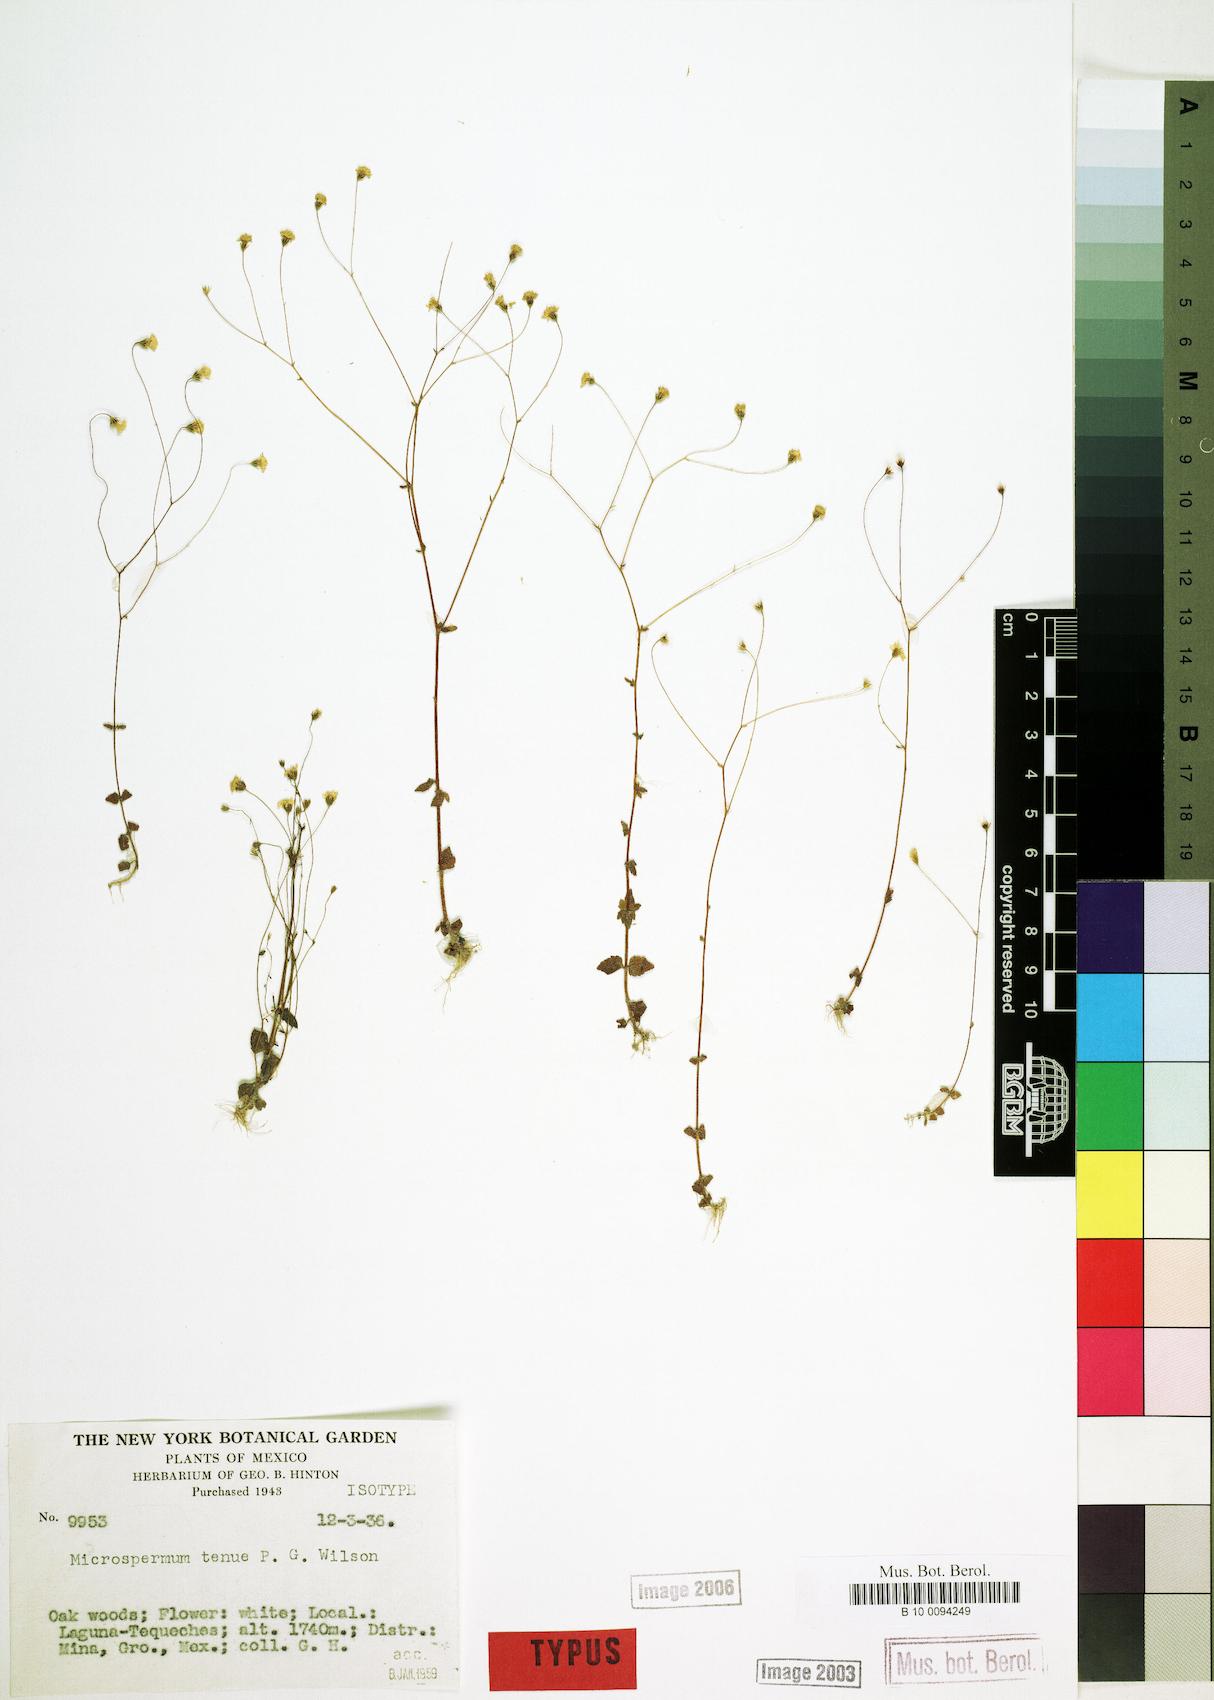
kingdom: Plantae
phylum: Tracheophyta
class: Magnoliopsida
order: Asterales
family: Asteraceae
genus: Microspermum
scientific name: Microspermum tenue
